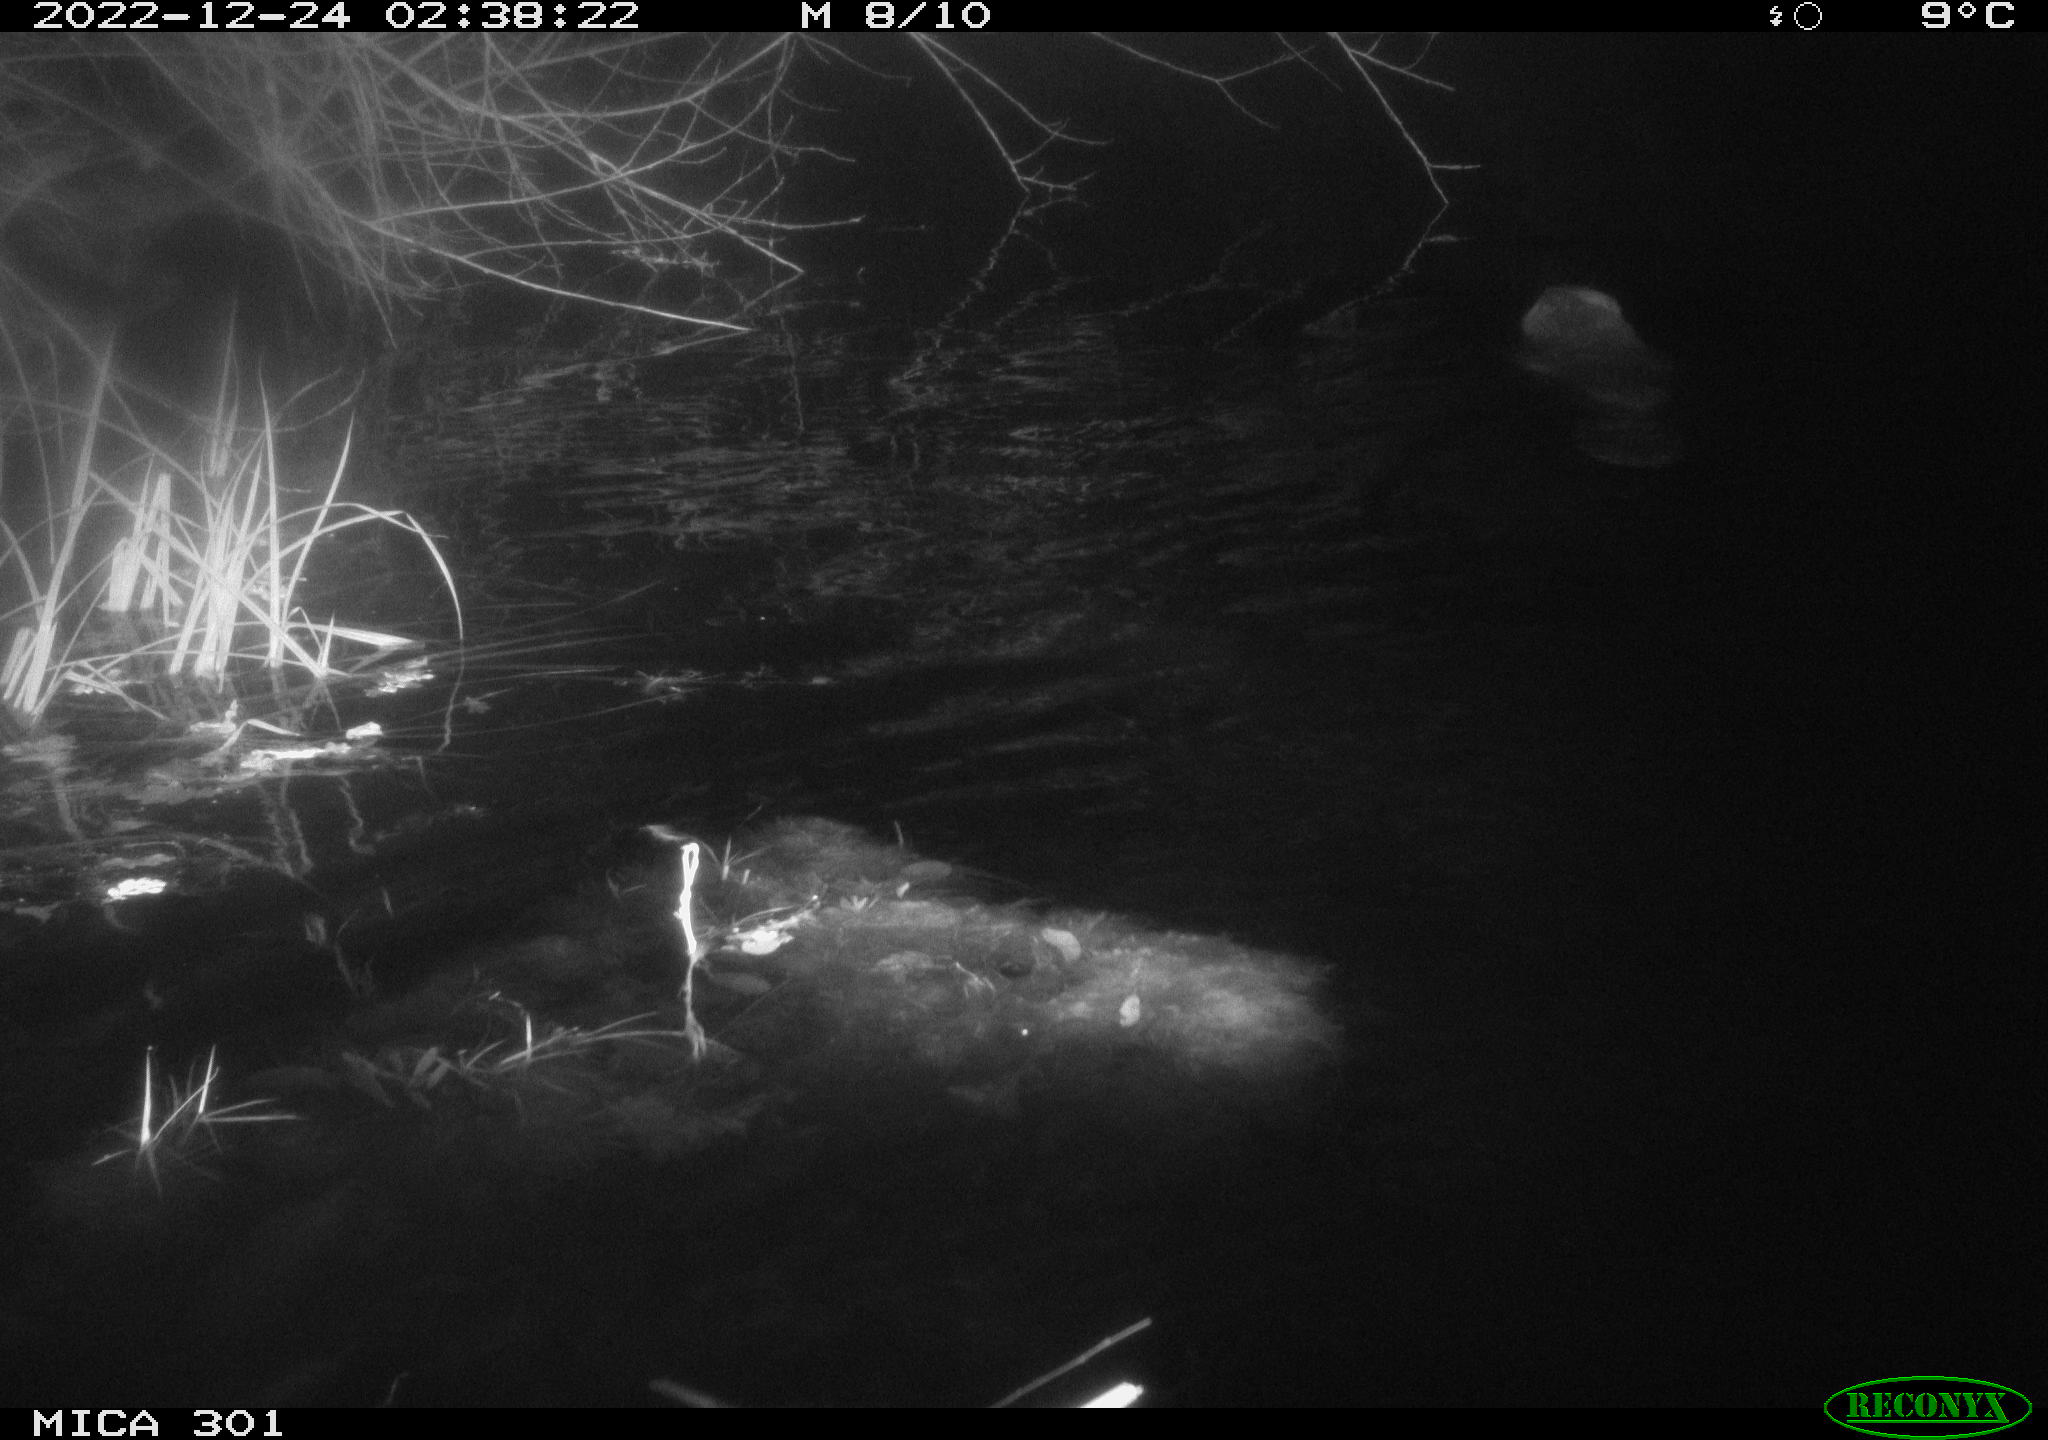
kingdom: Animalia
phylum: Chordata
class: Mammalia
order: Rodentia
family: Castoridae
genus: Castor
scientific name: Castor fiber
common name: Eurasian beaver
